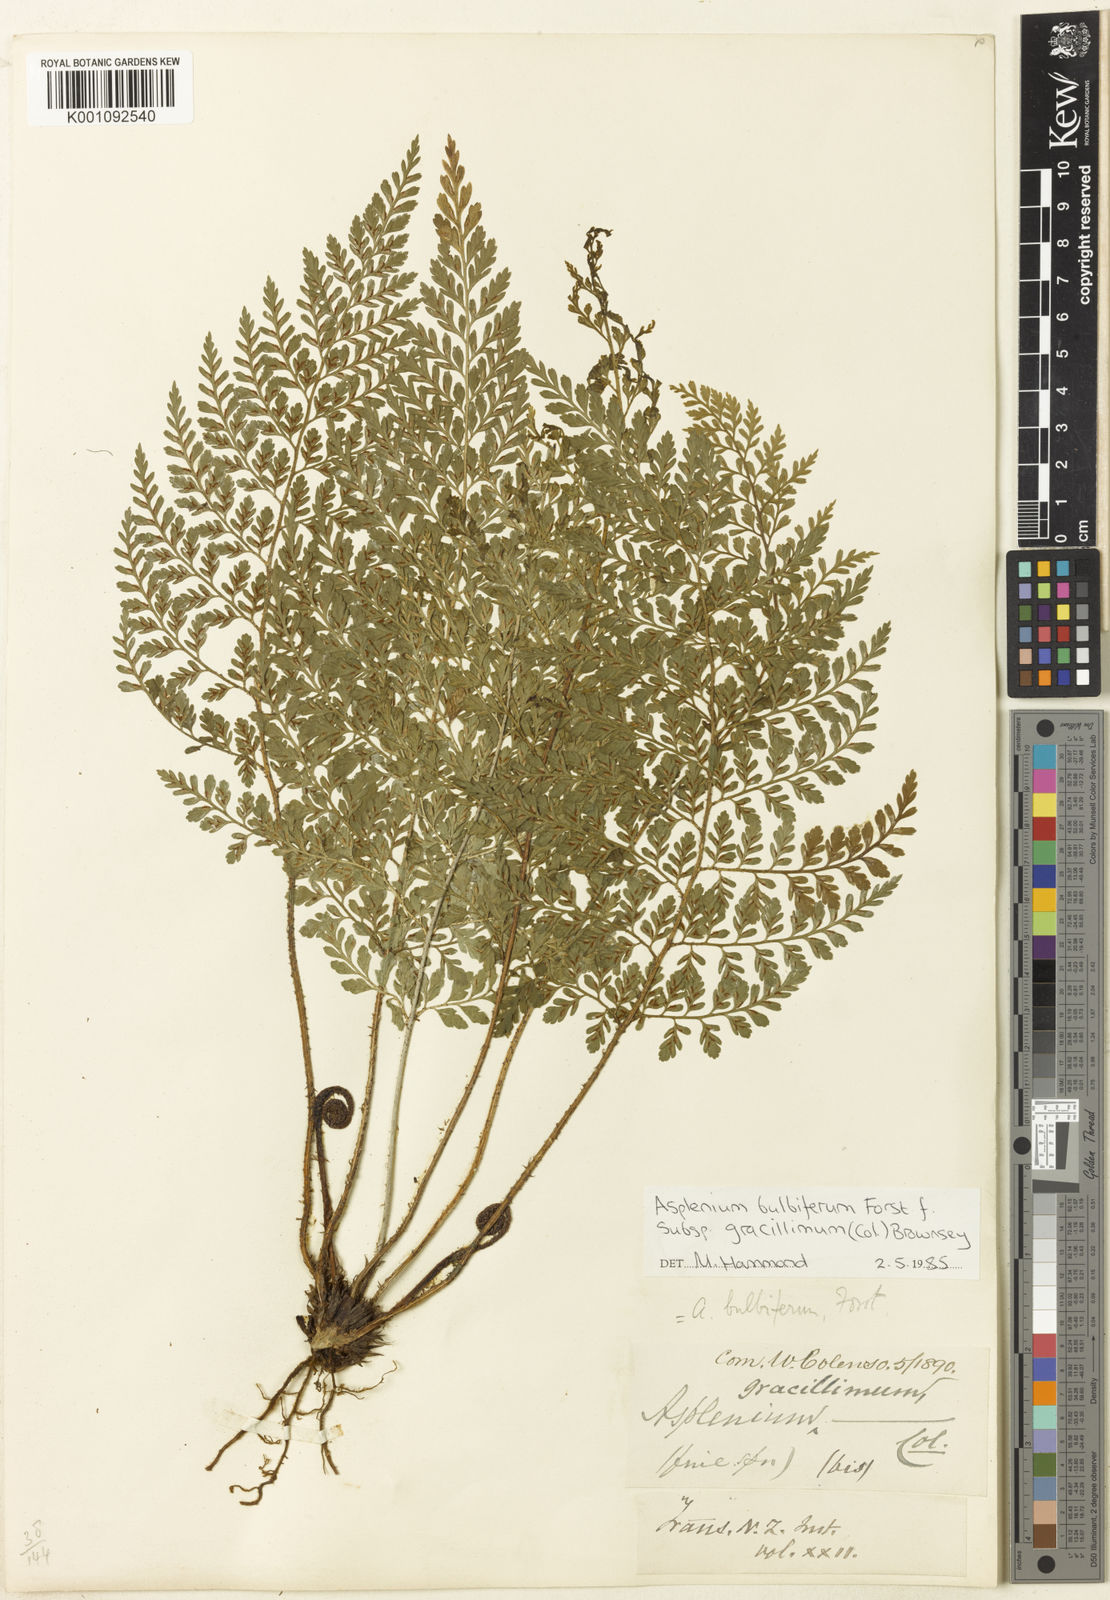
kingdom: Plantae
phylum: Tracheophyta
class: Polypodiopsida
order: Polypodiales
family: Aspleniaceae
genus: Asplenium
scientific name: Asplenium bulbiferum
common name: Mother fern
